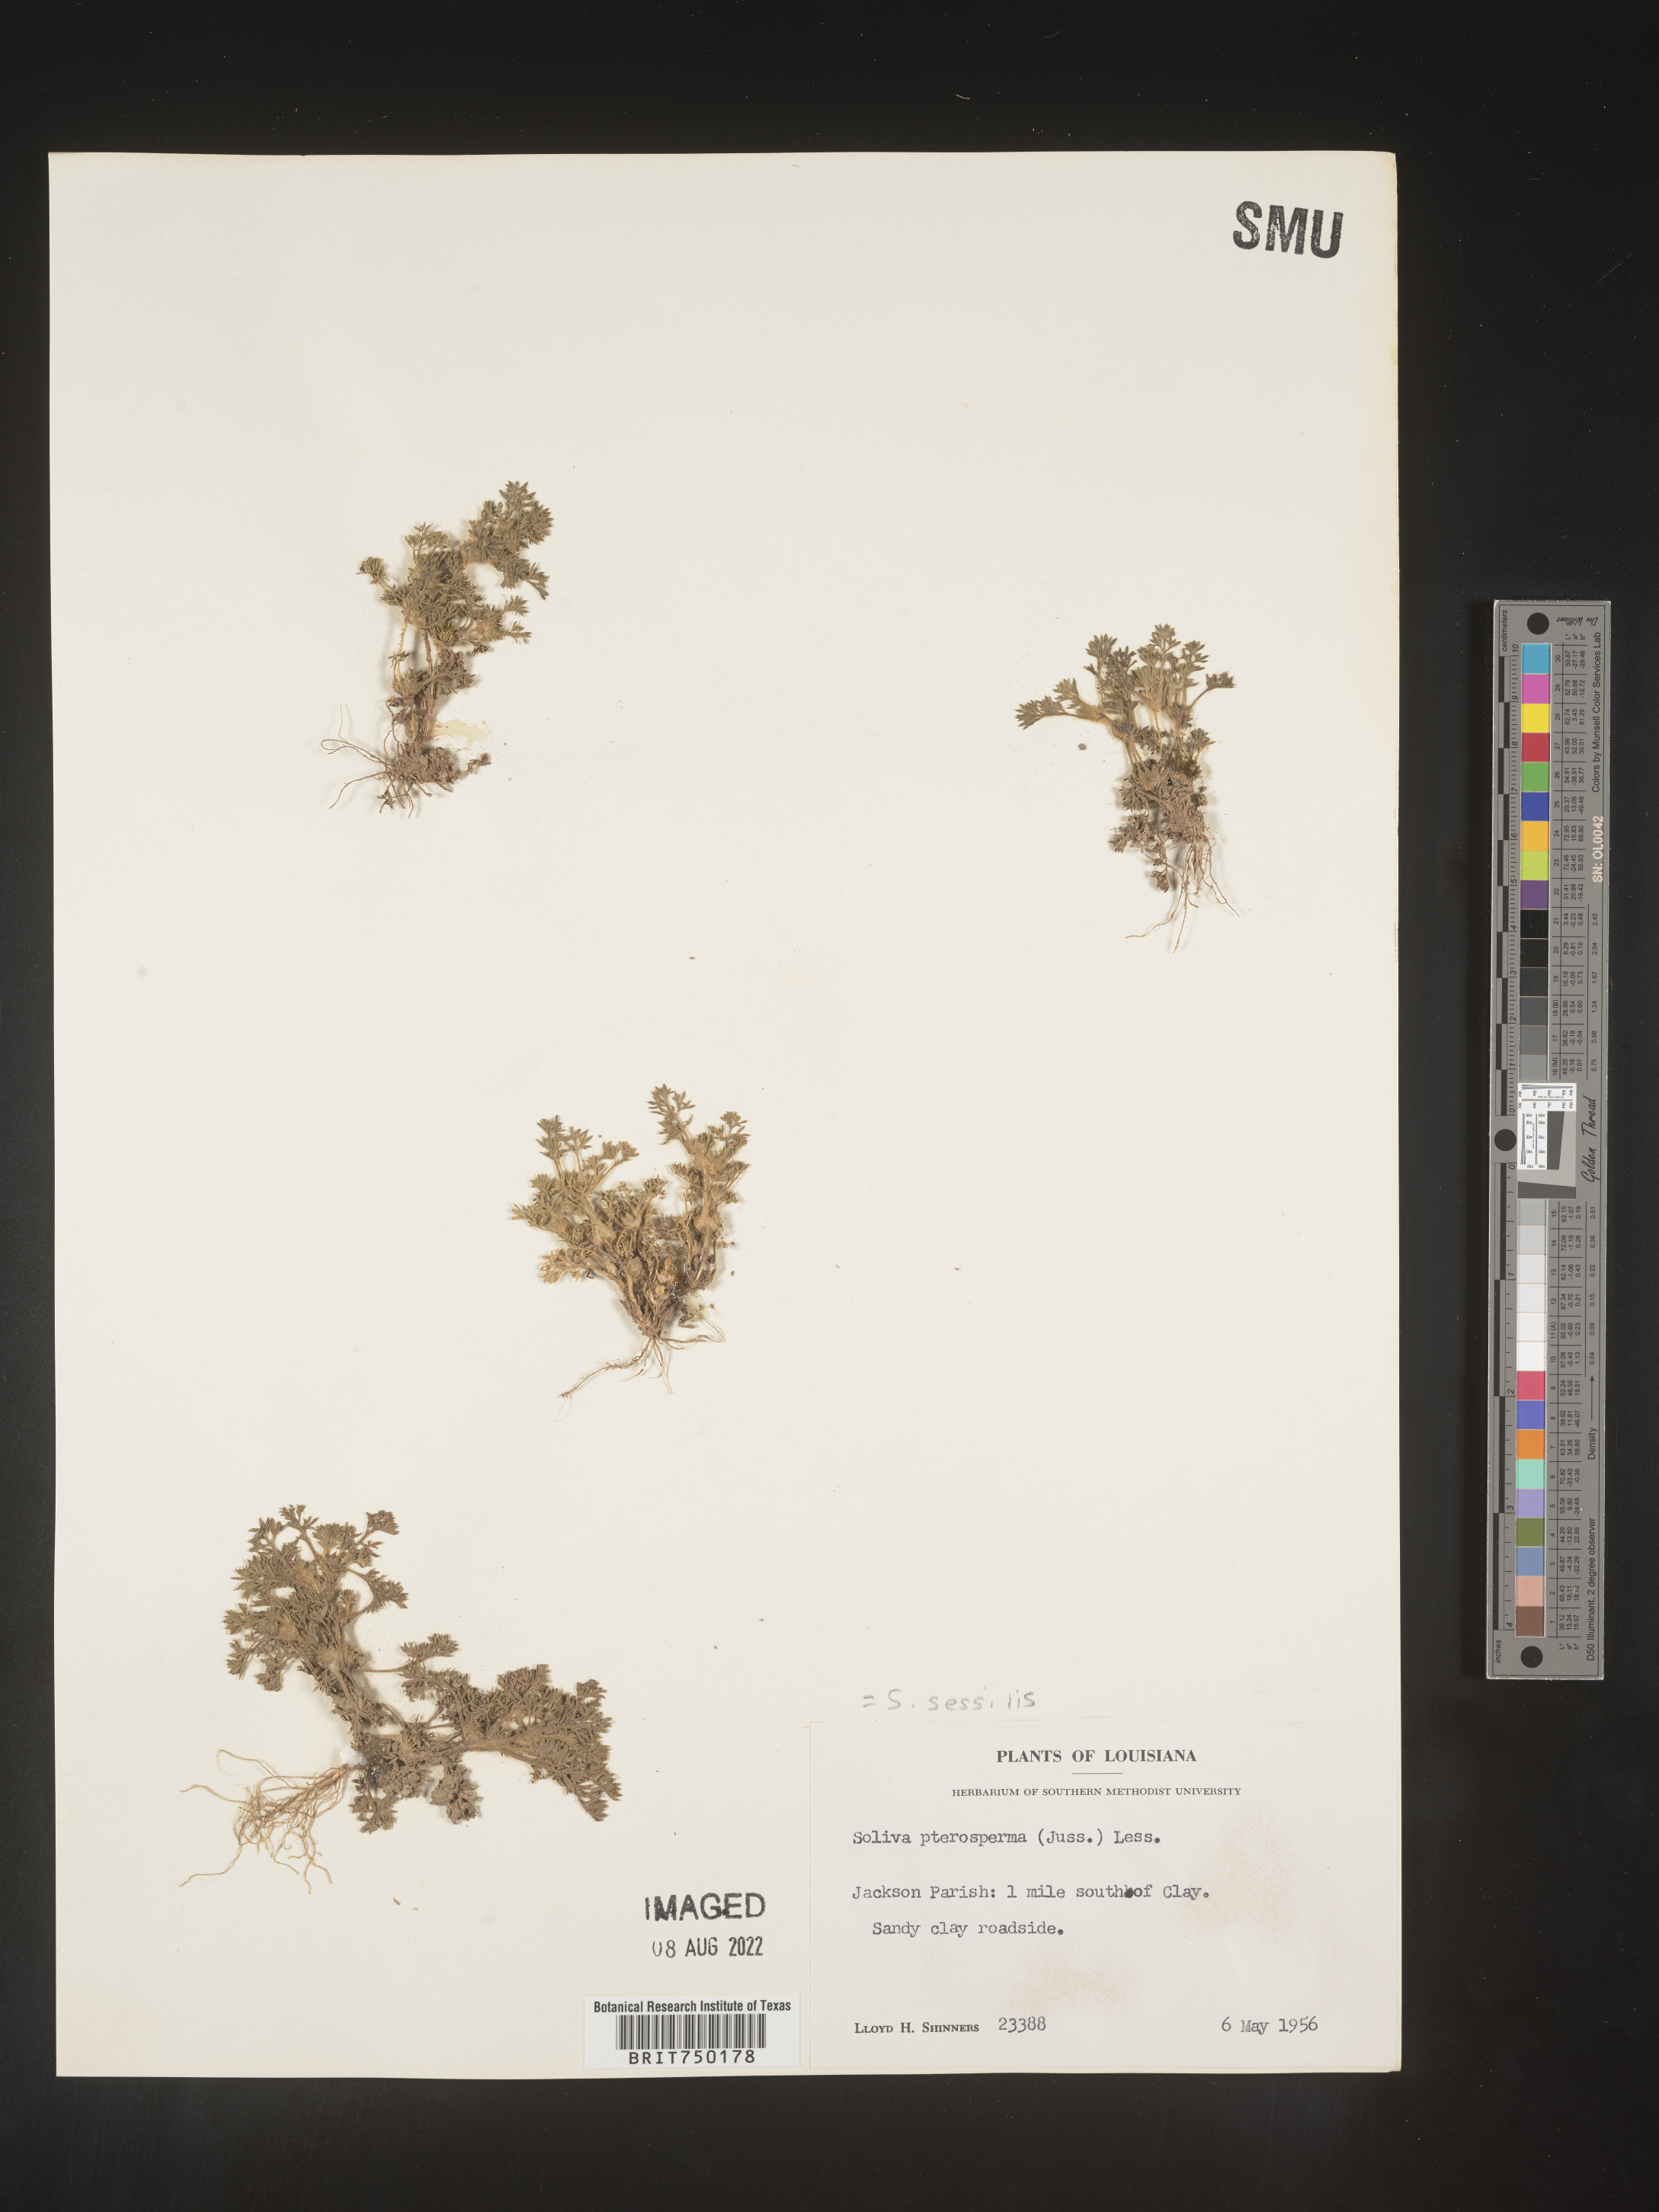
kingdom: Plantae
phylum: Tracheophyta
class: Magnoliopsida
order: Asterales
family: Asteraceae
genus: Soliva
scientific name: Soliva sessilis
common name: Field burrweed
